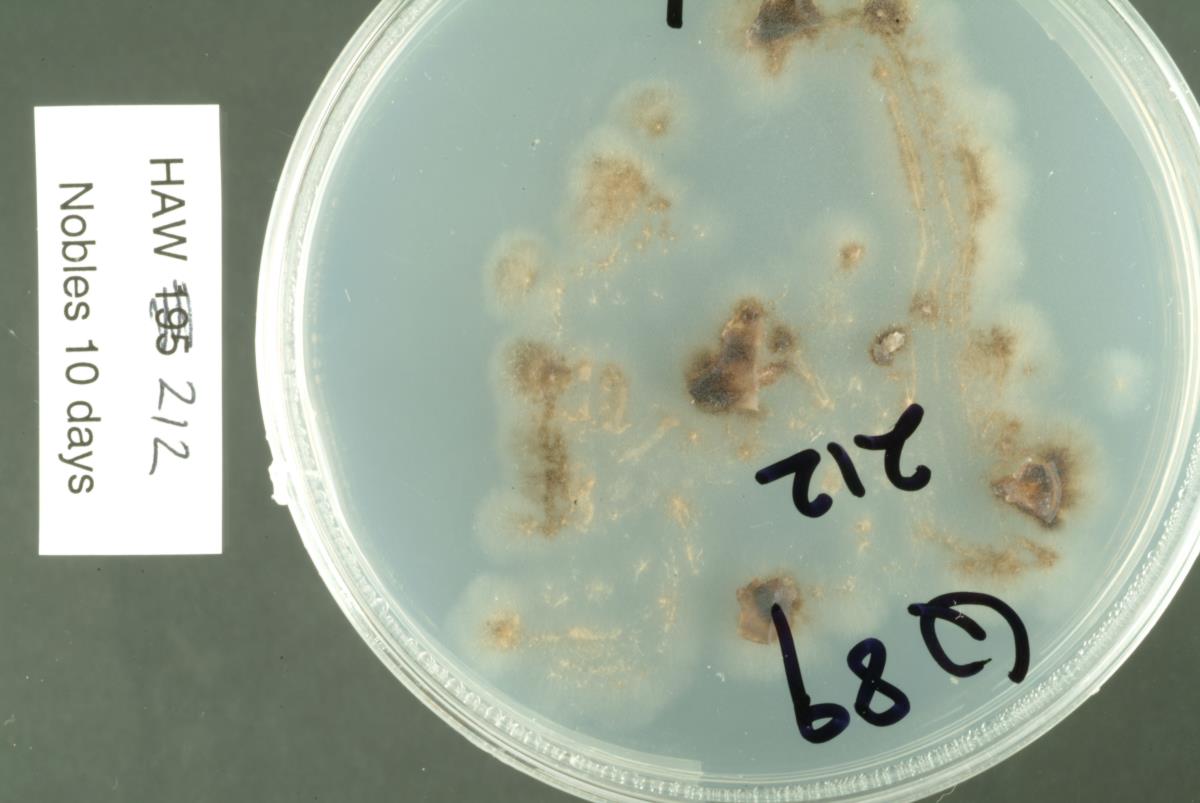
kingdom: Fungi
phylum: Ascomycota
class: Leotiomycetes
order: Helotiales
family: Sclerotiniaceae
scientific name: Sclerotiniaceae
